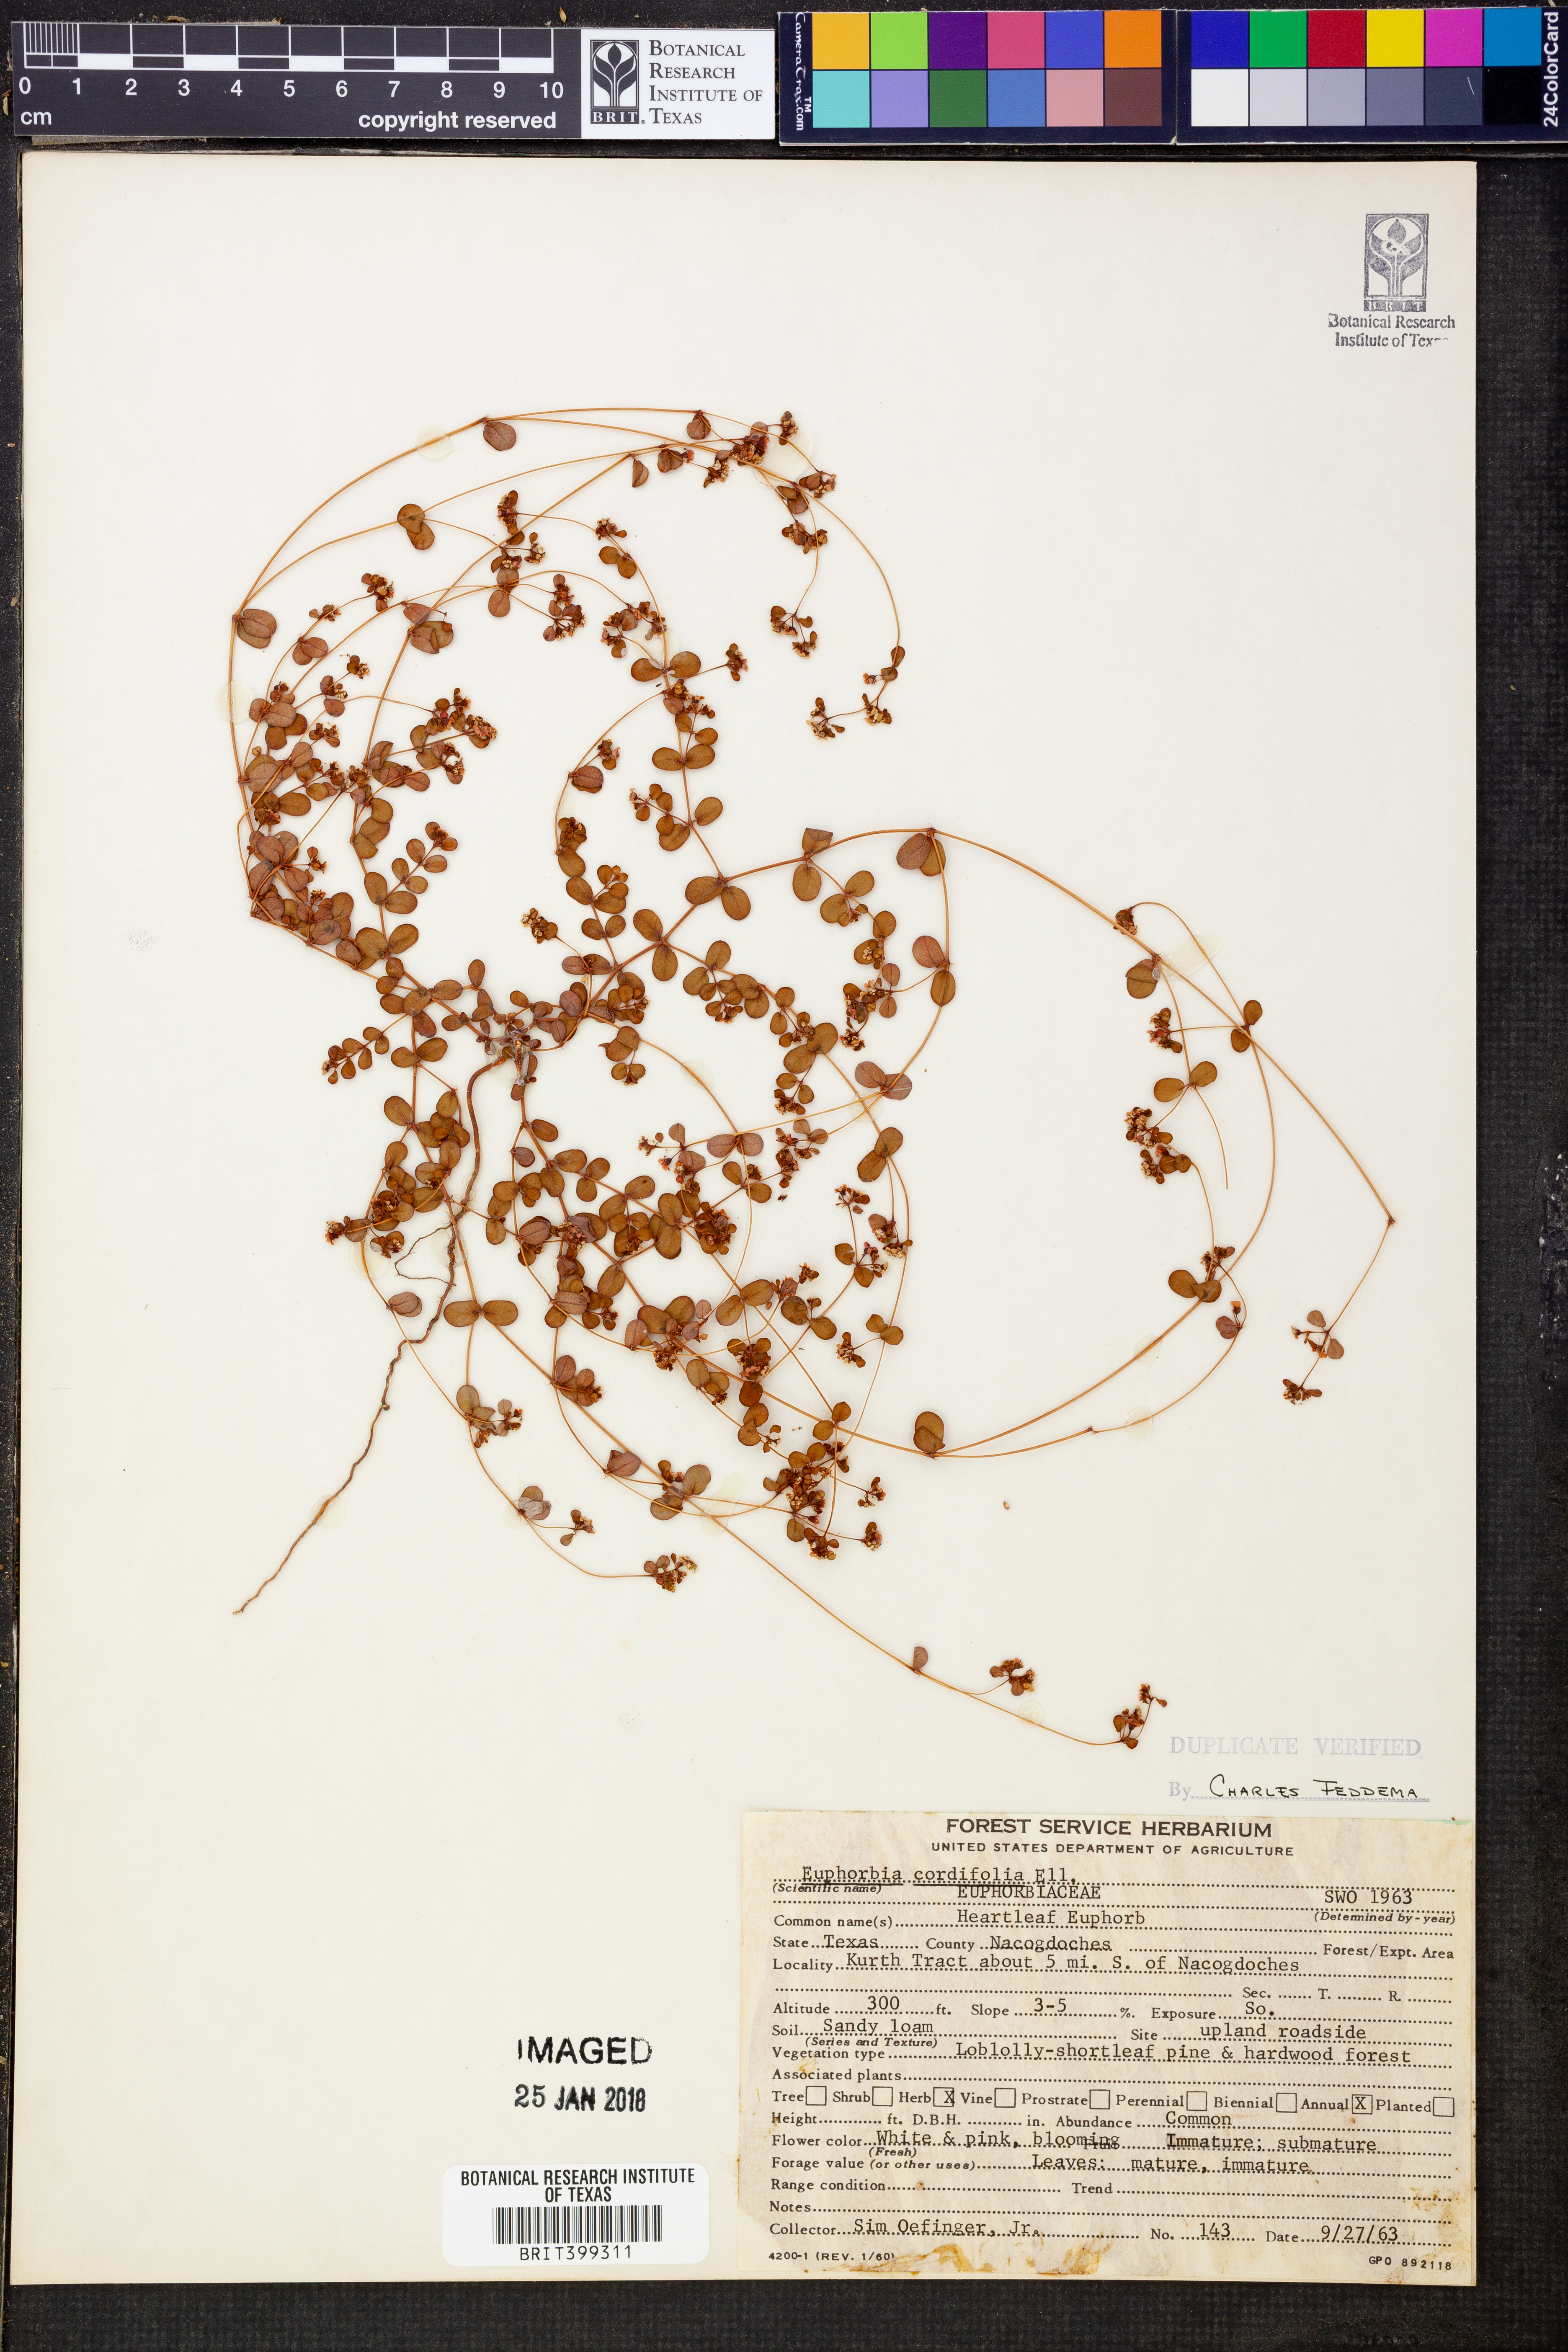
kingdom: Plantae
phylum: Tracheophyta
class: Magnoliopsida
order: Malpighiales
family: Euphorbiaceae
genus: Euphorbia
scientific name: Euphorbia cordifolia
